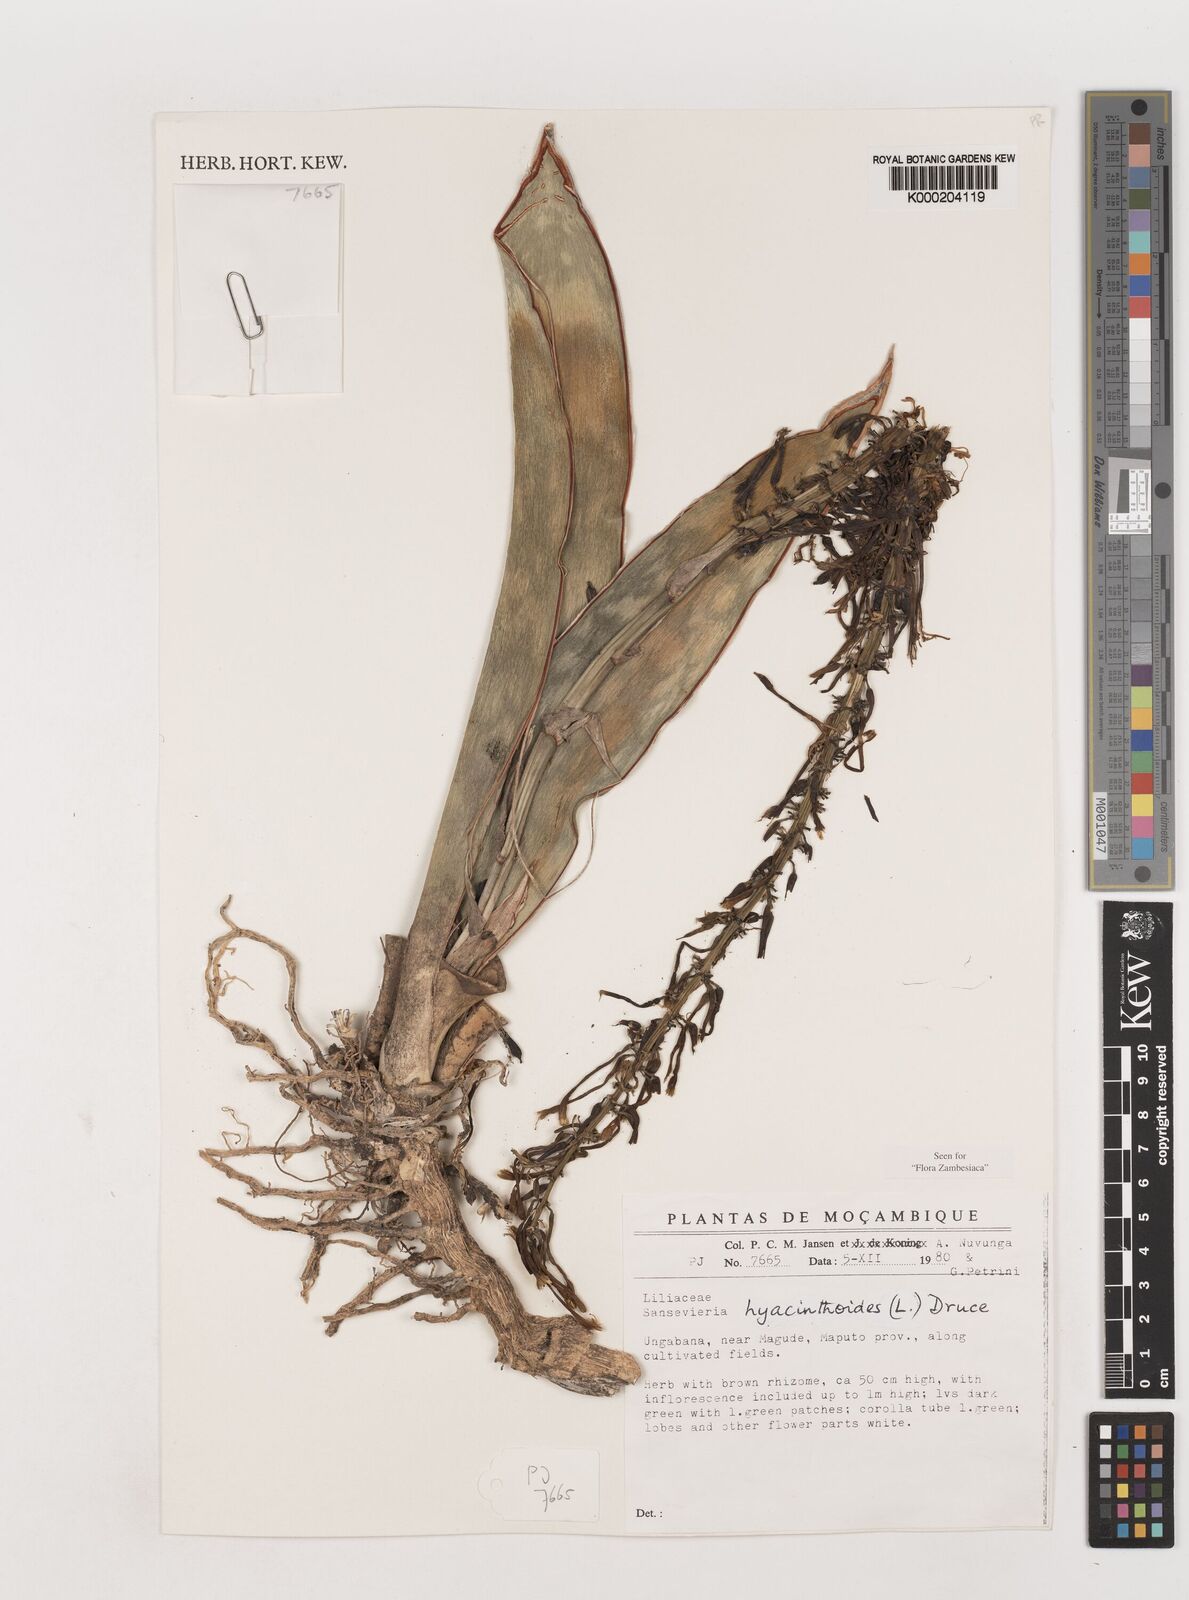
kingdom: Plantae
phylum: Tracheophyta
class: Liliopsida
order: Asparagales
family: Asparagaceae
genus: Dracaena
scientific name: Dracaena hyacinthoides
